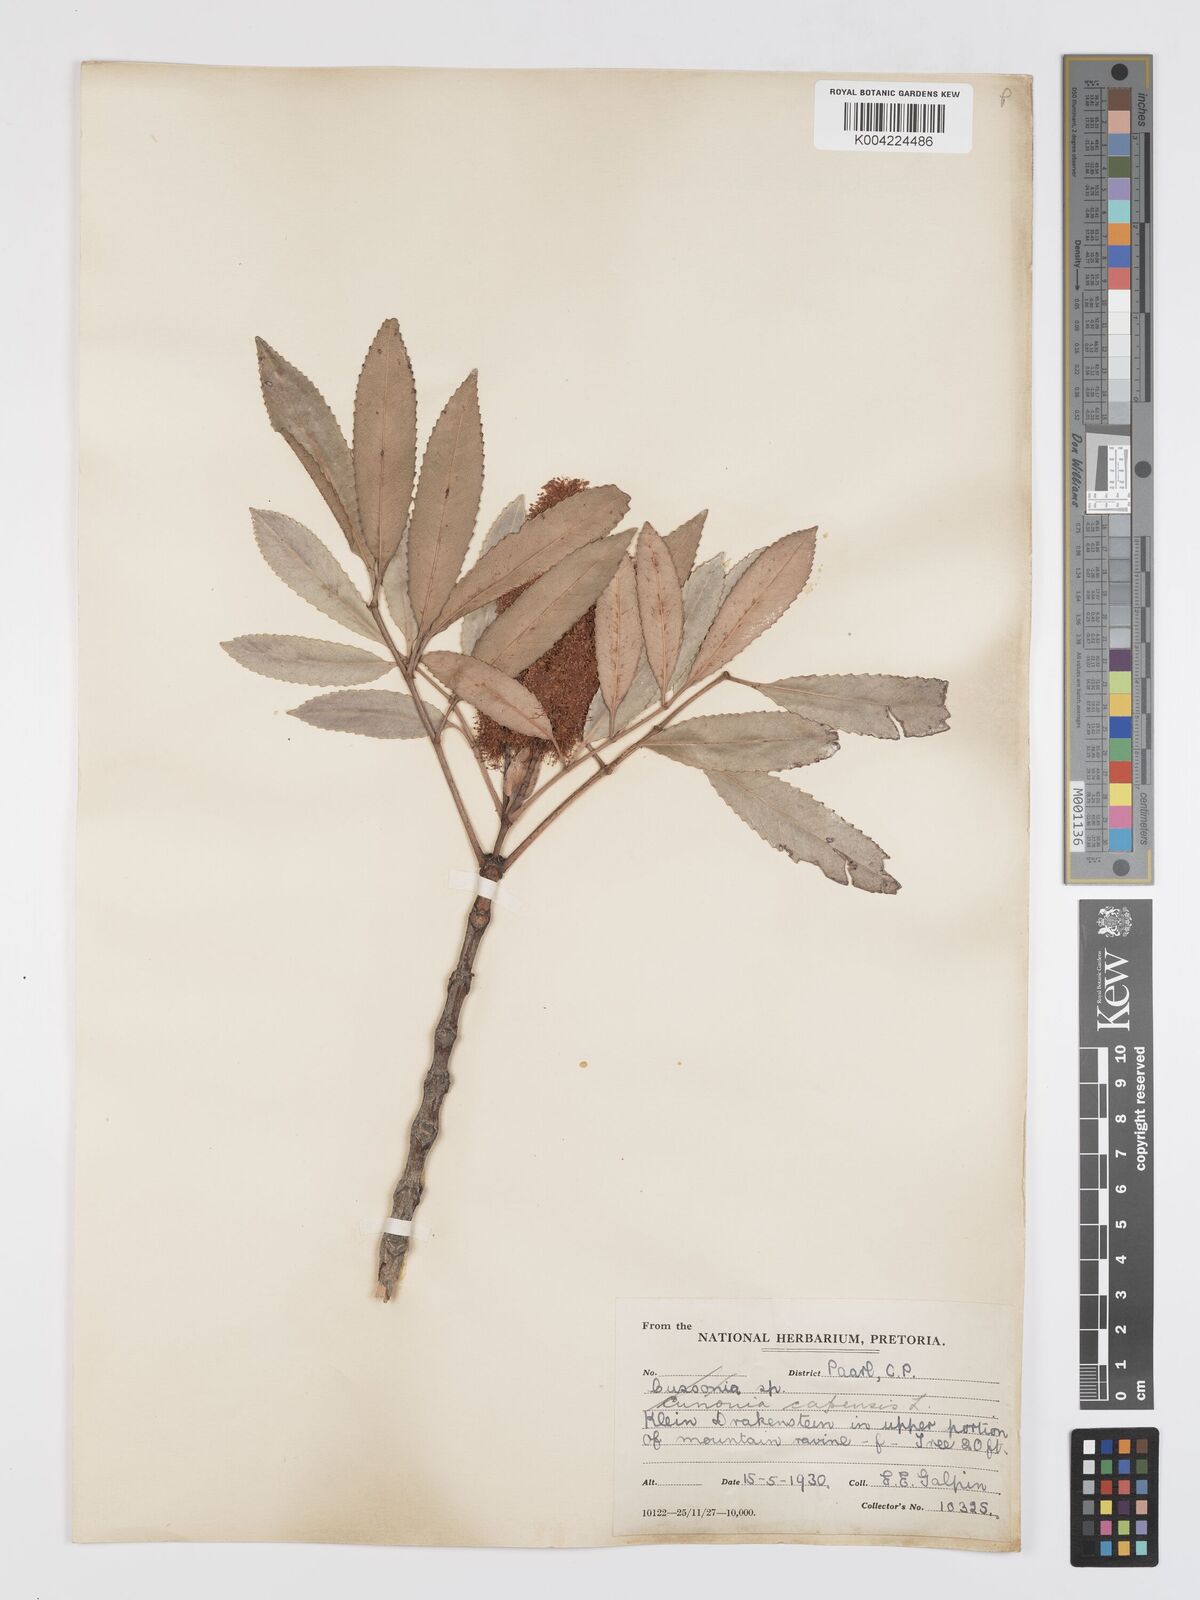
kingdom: Plantae
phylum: Tracheophyta
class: Magnoliopsida
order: Oxalidales
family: Cunoniaceae
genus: Cunonia
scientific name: Cunonia capensis
